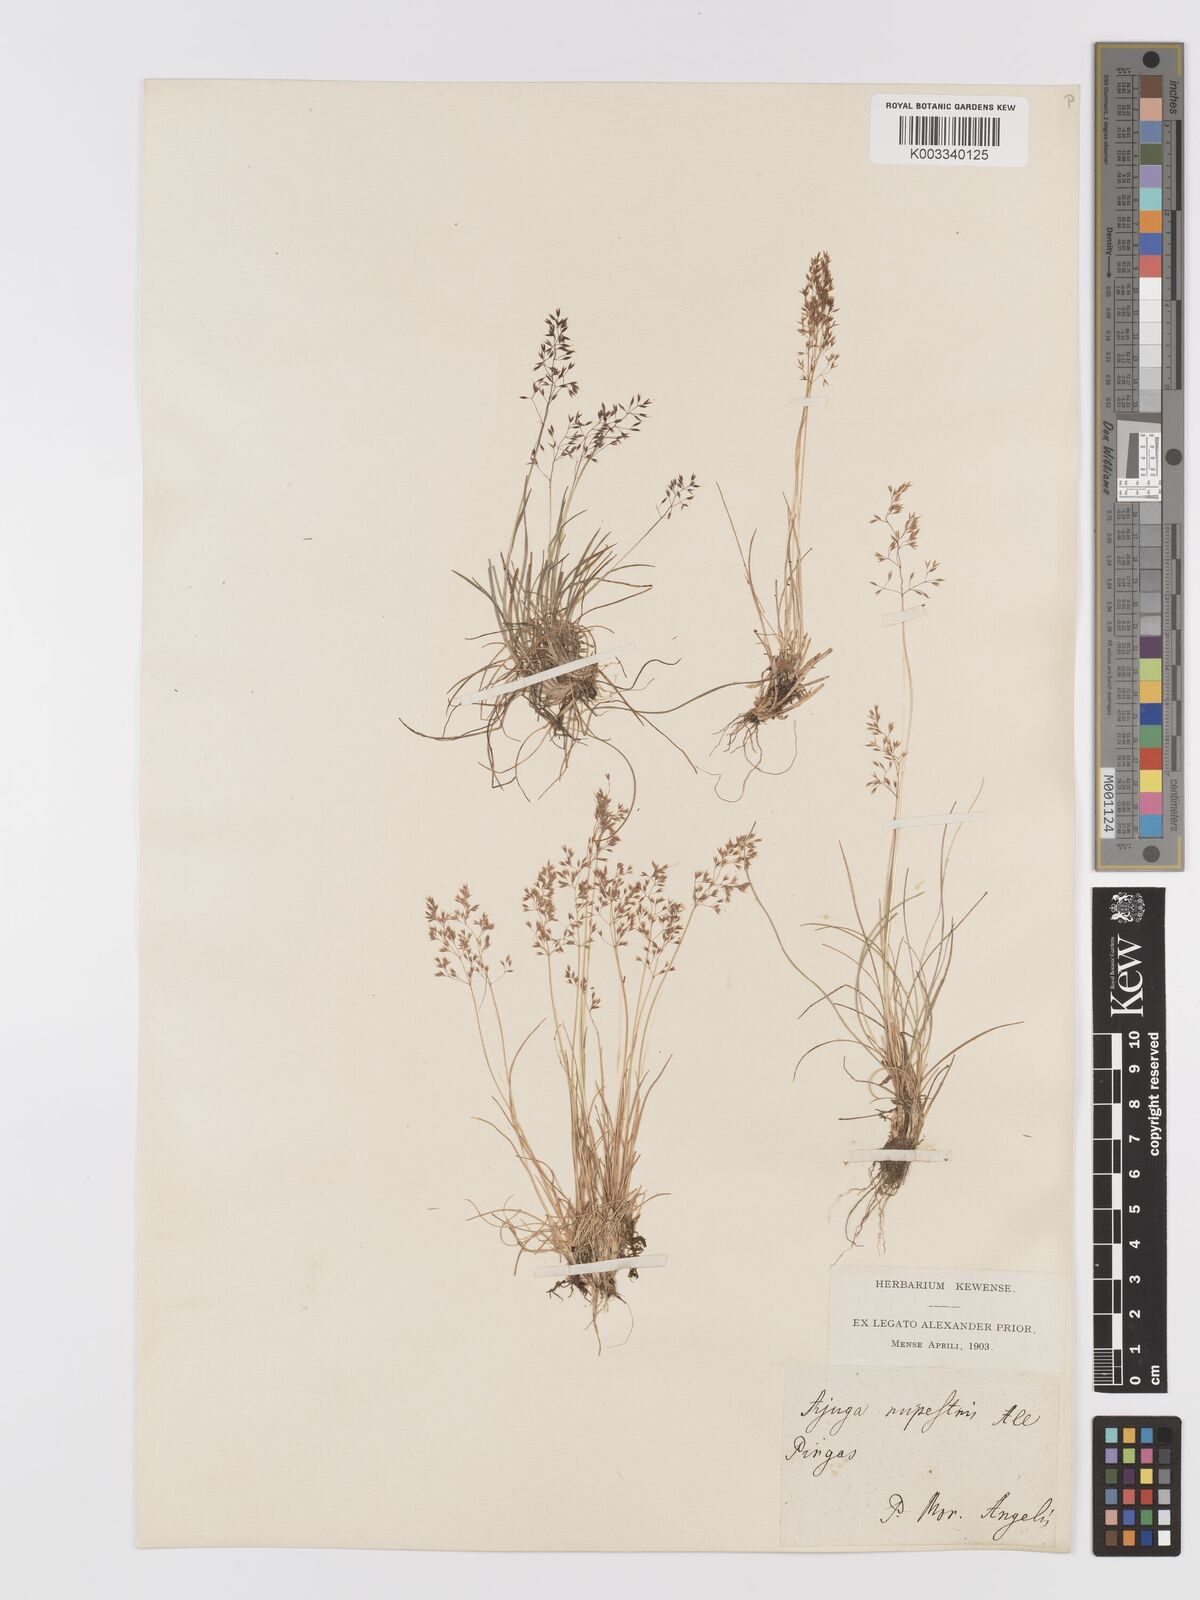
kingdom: Plantae
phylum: Tracheophyta
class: Liliopsida
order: Poales
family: Poaceae
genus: Agrostis
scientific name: Agrostis rupestris
